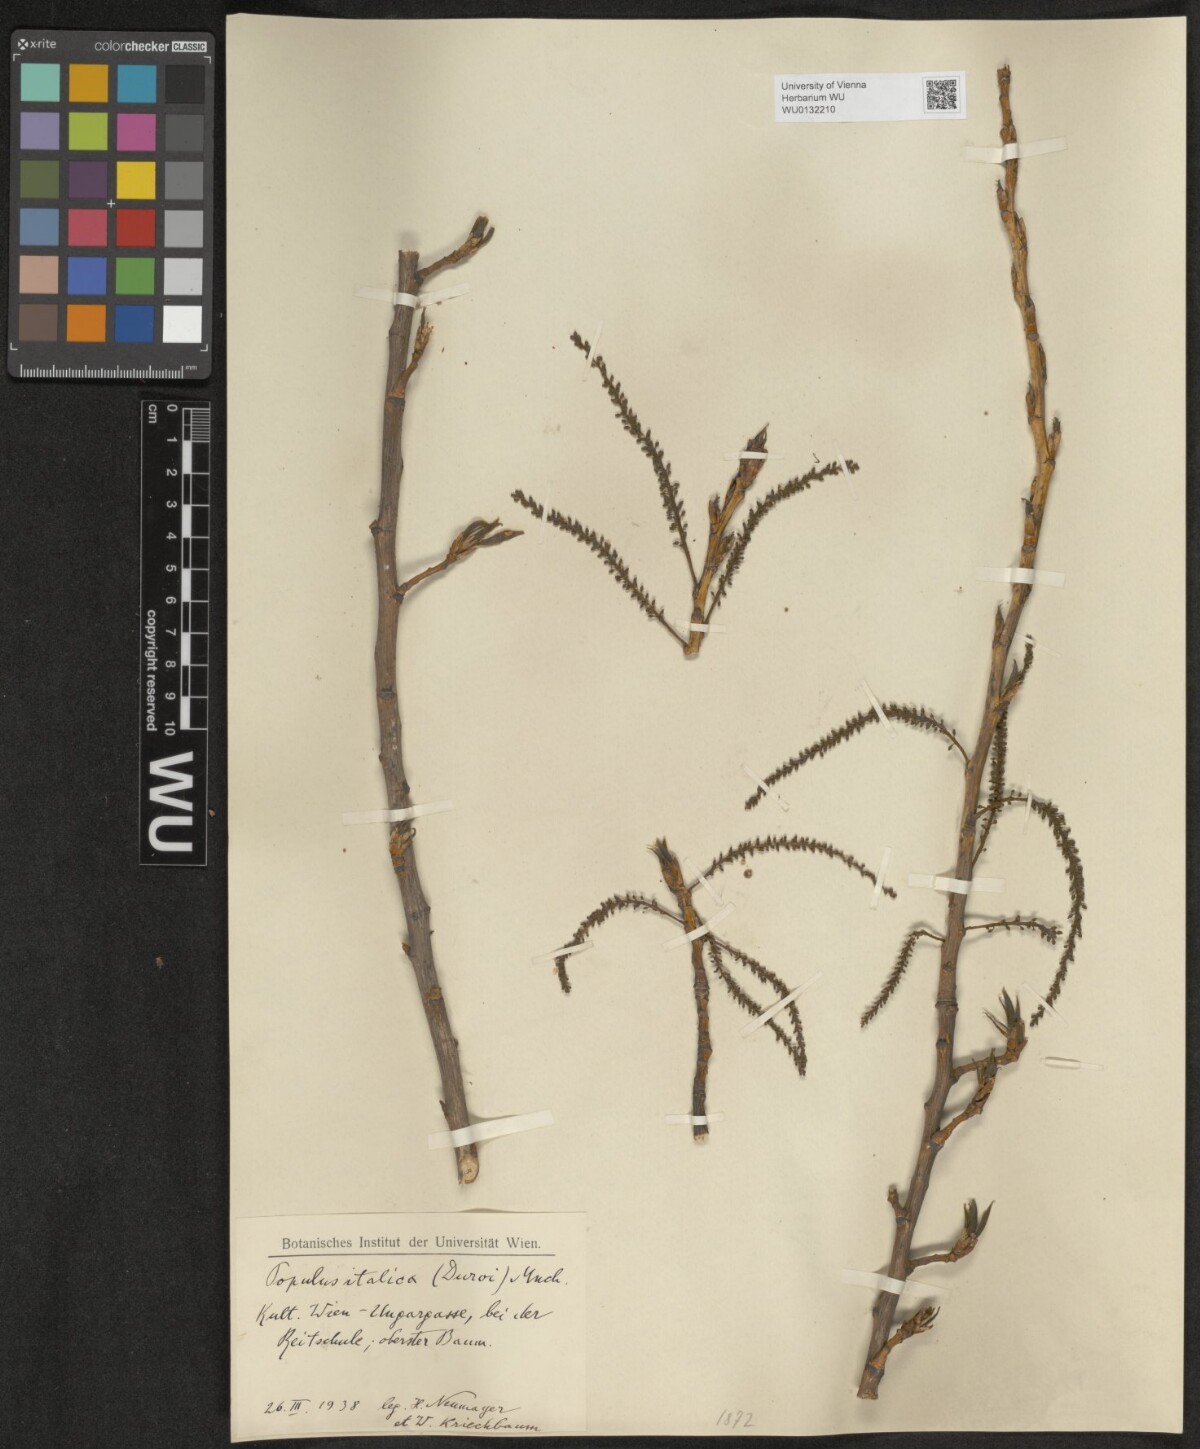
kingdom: Plantae
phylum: Tracheophyta
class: Magnoliopsida
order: Malpighiales
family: Salicaceae
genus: Populus
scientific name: Populus nigra
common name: Black poplar
